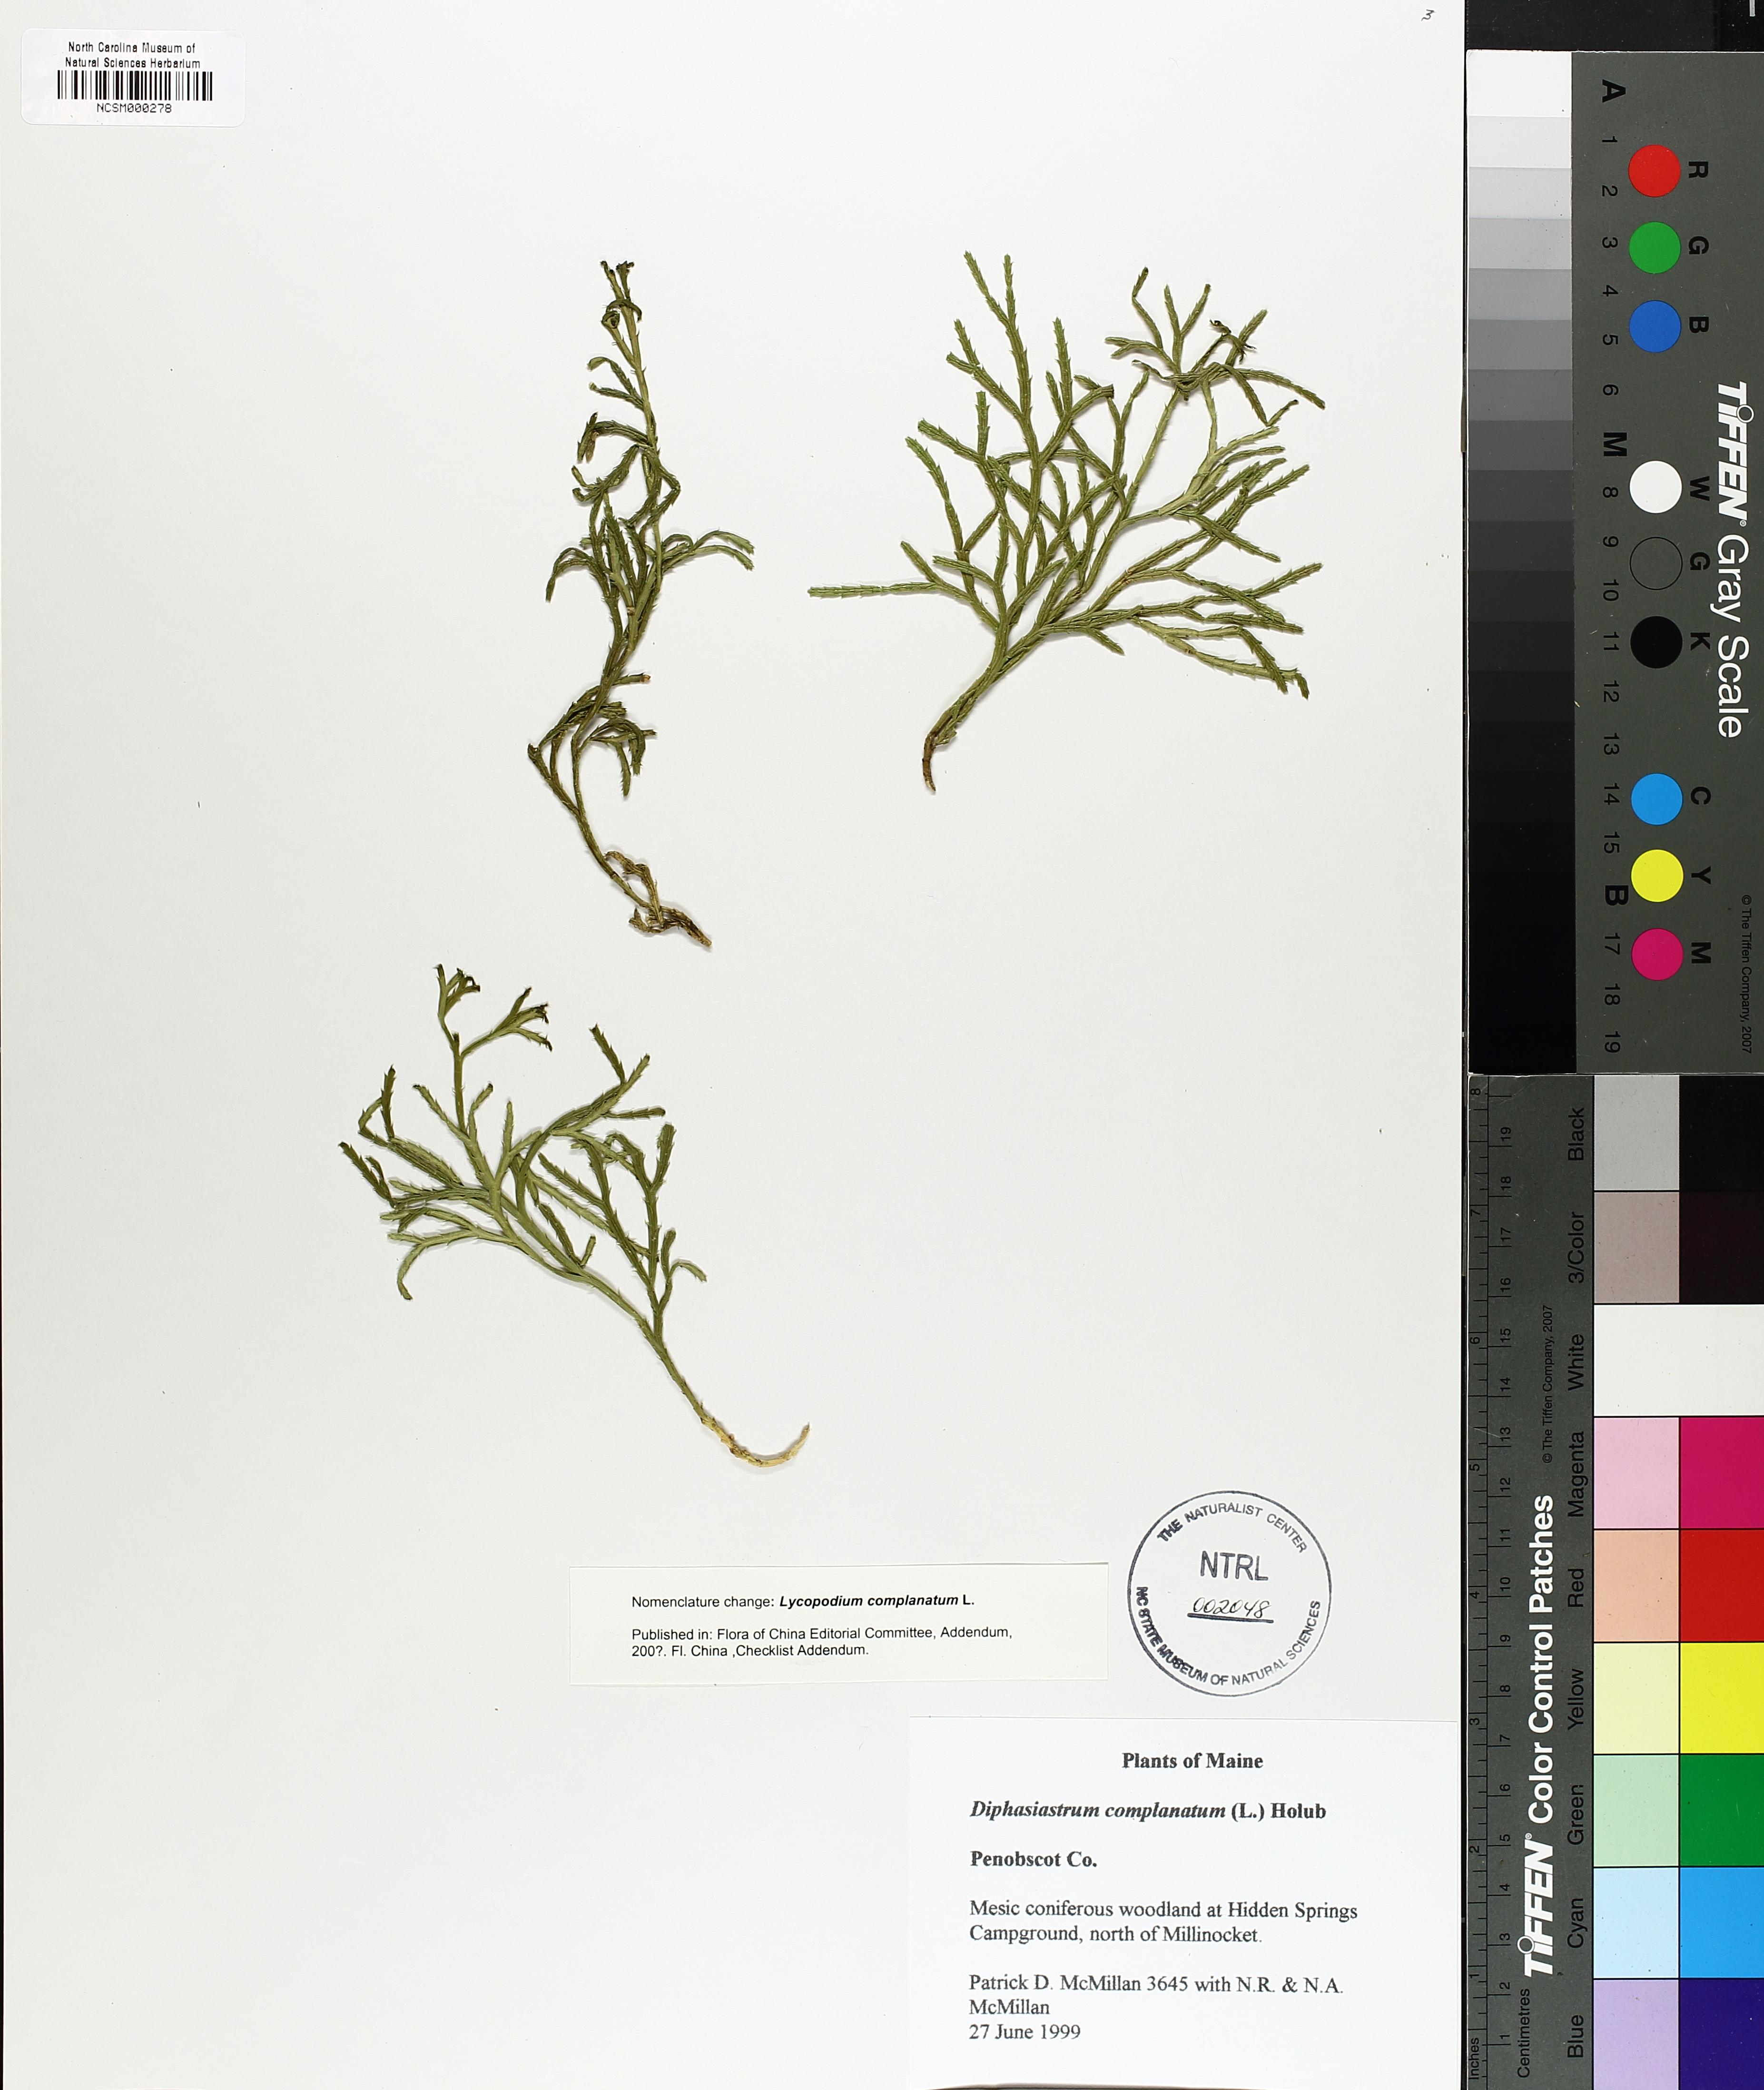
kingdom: Plantae
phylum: Tracheophyta
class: Lycopodiopsida
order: Lycopodiales
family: Lycopodiaceae
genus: Diphasiastrum
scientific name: Diphasiastrum complanatum
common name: Northern running-pine
